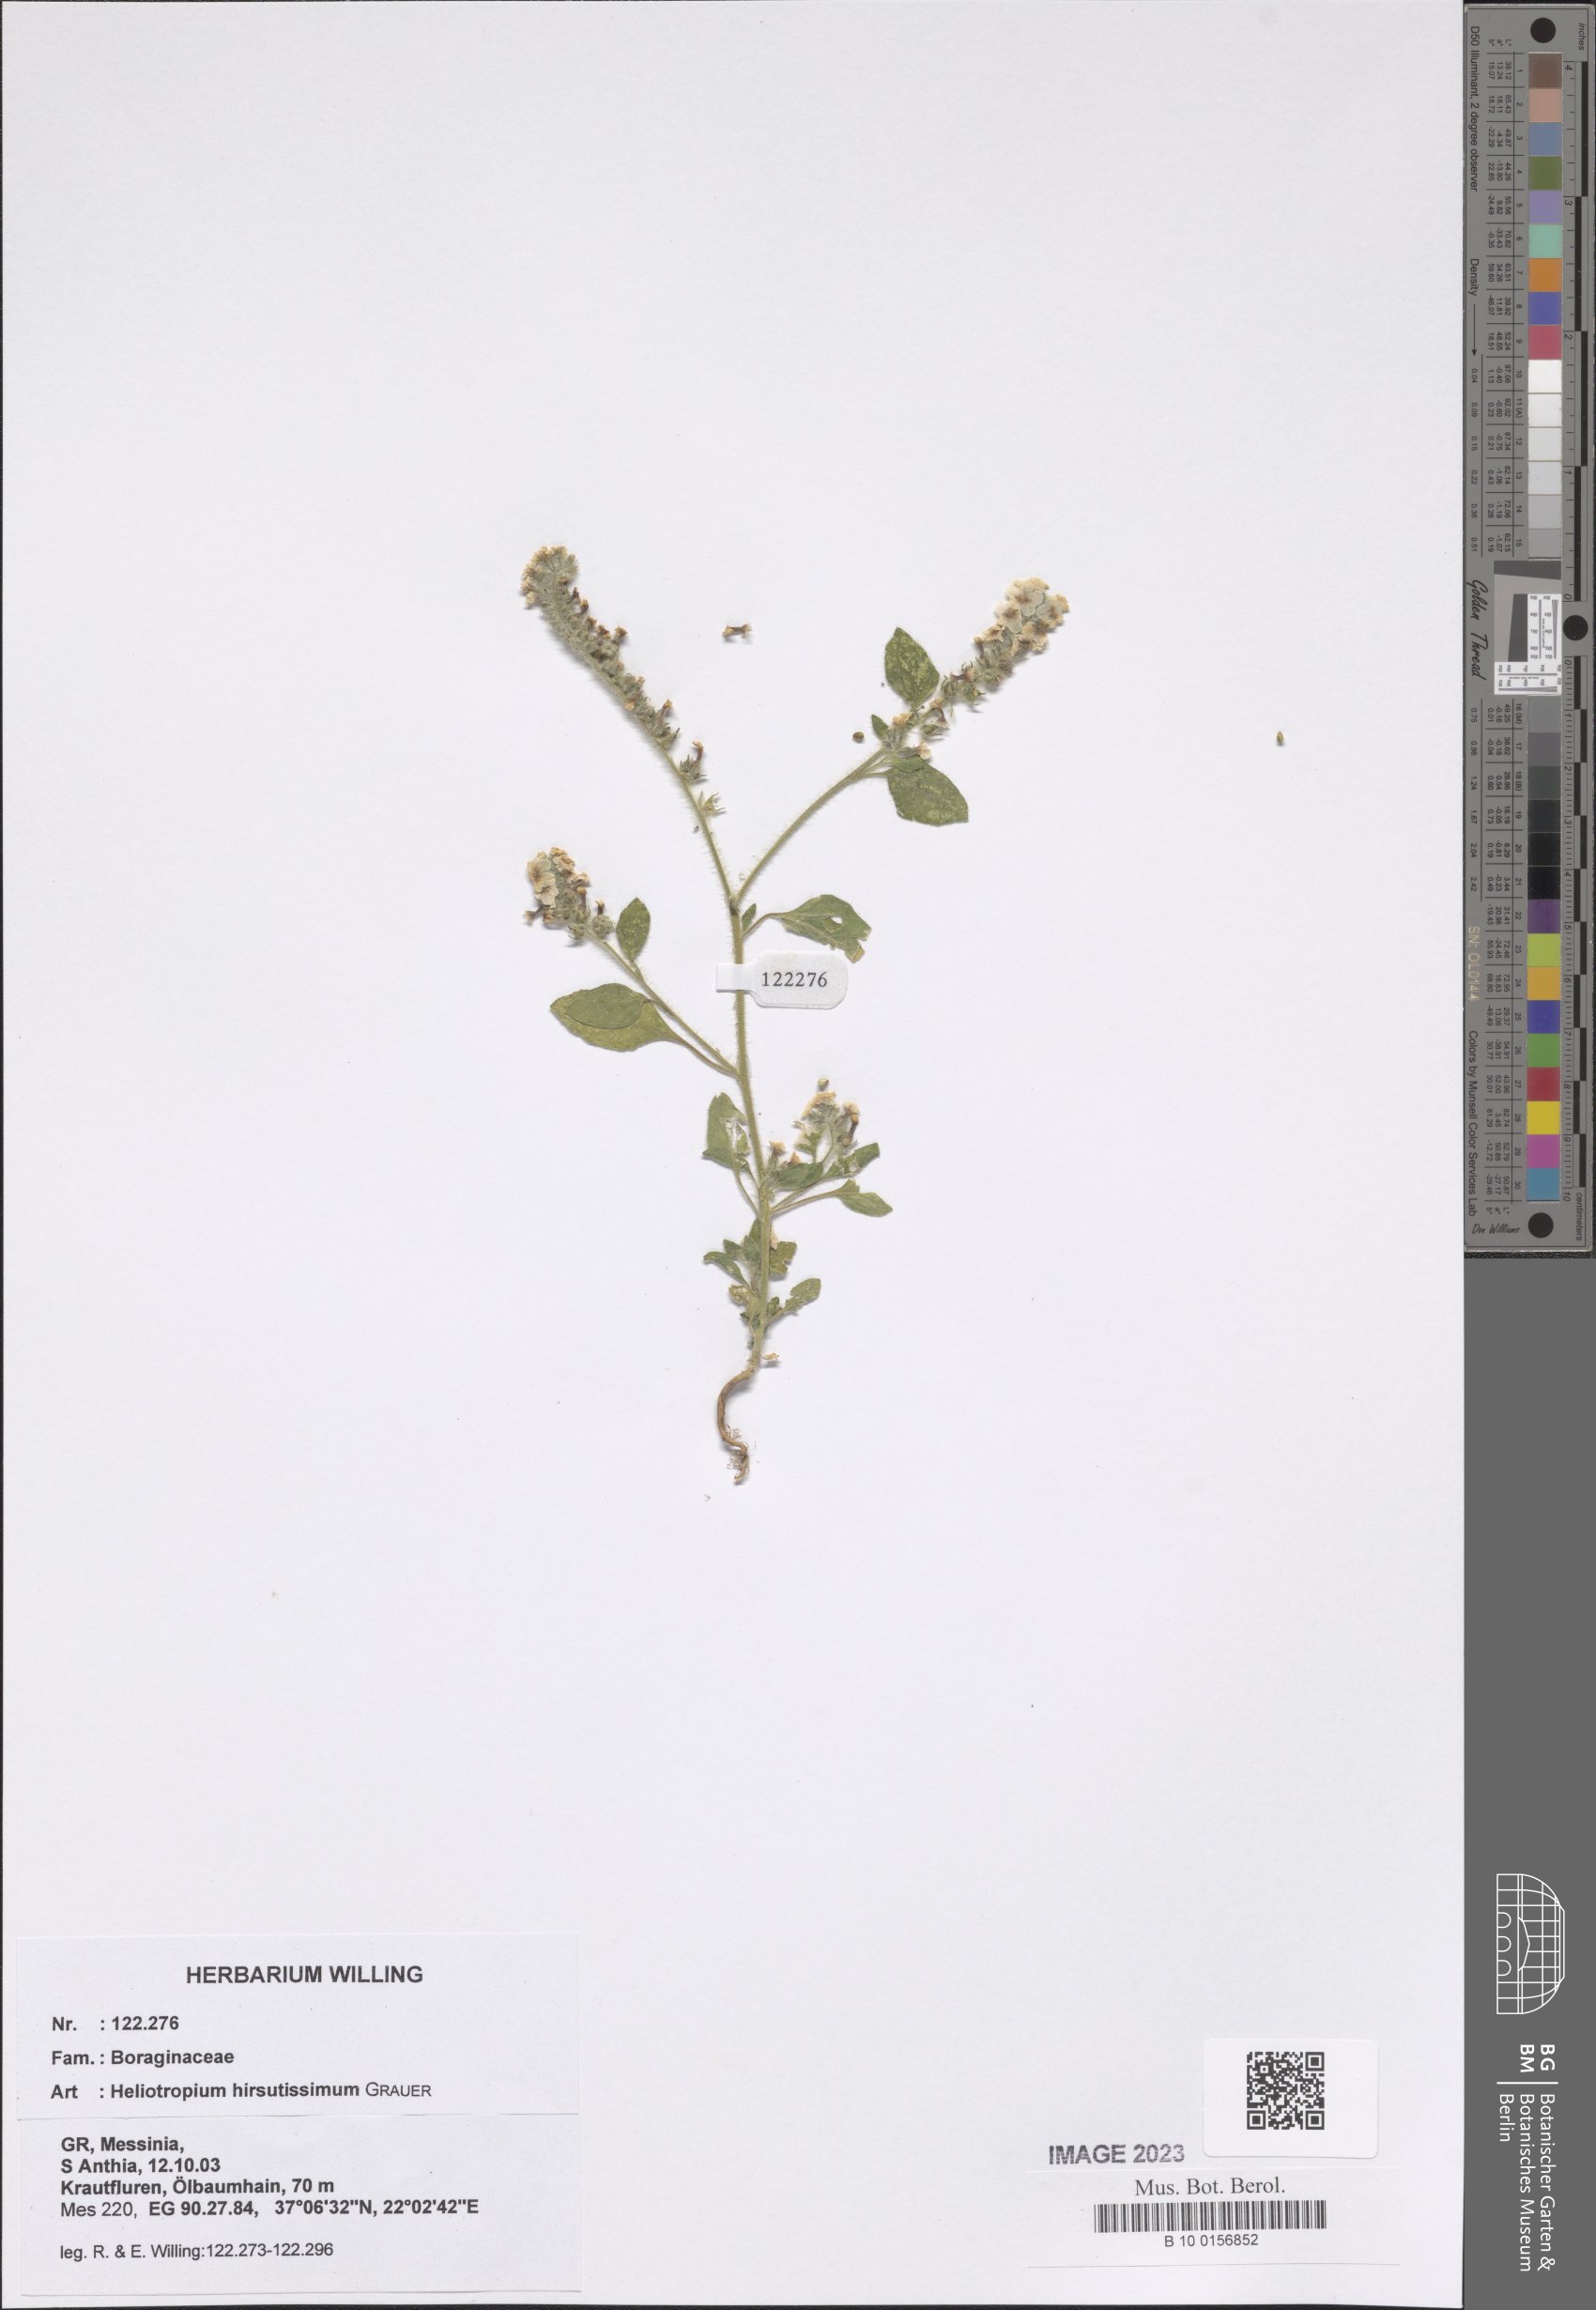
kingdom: Plantae
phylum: Tracheophyta
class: Magnoliopsida
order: Boraginales
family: Heliotropiaceae
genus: Heliotropium
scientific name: Heliotropium hirsutissimum
